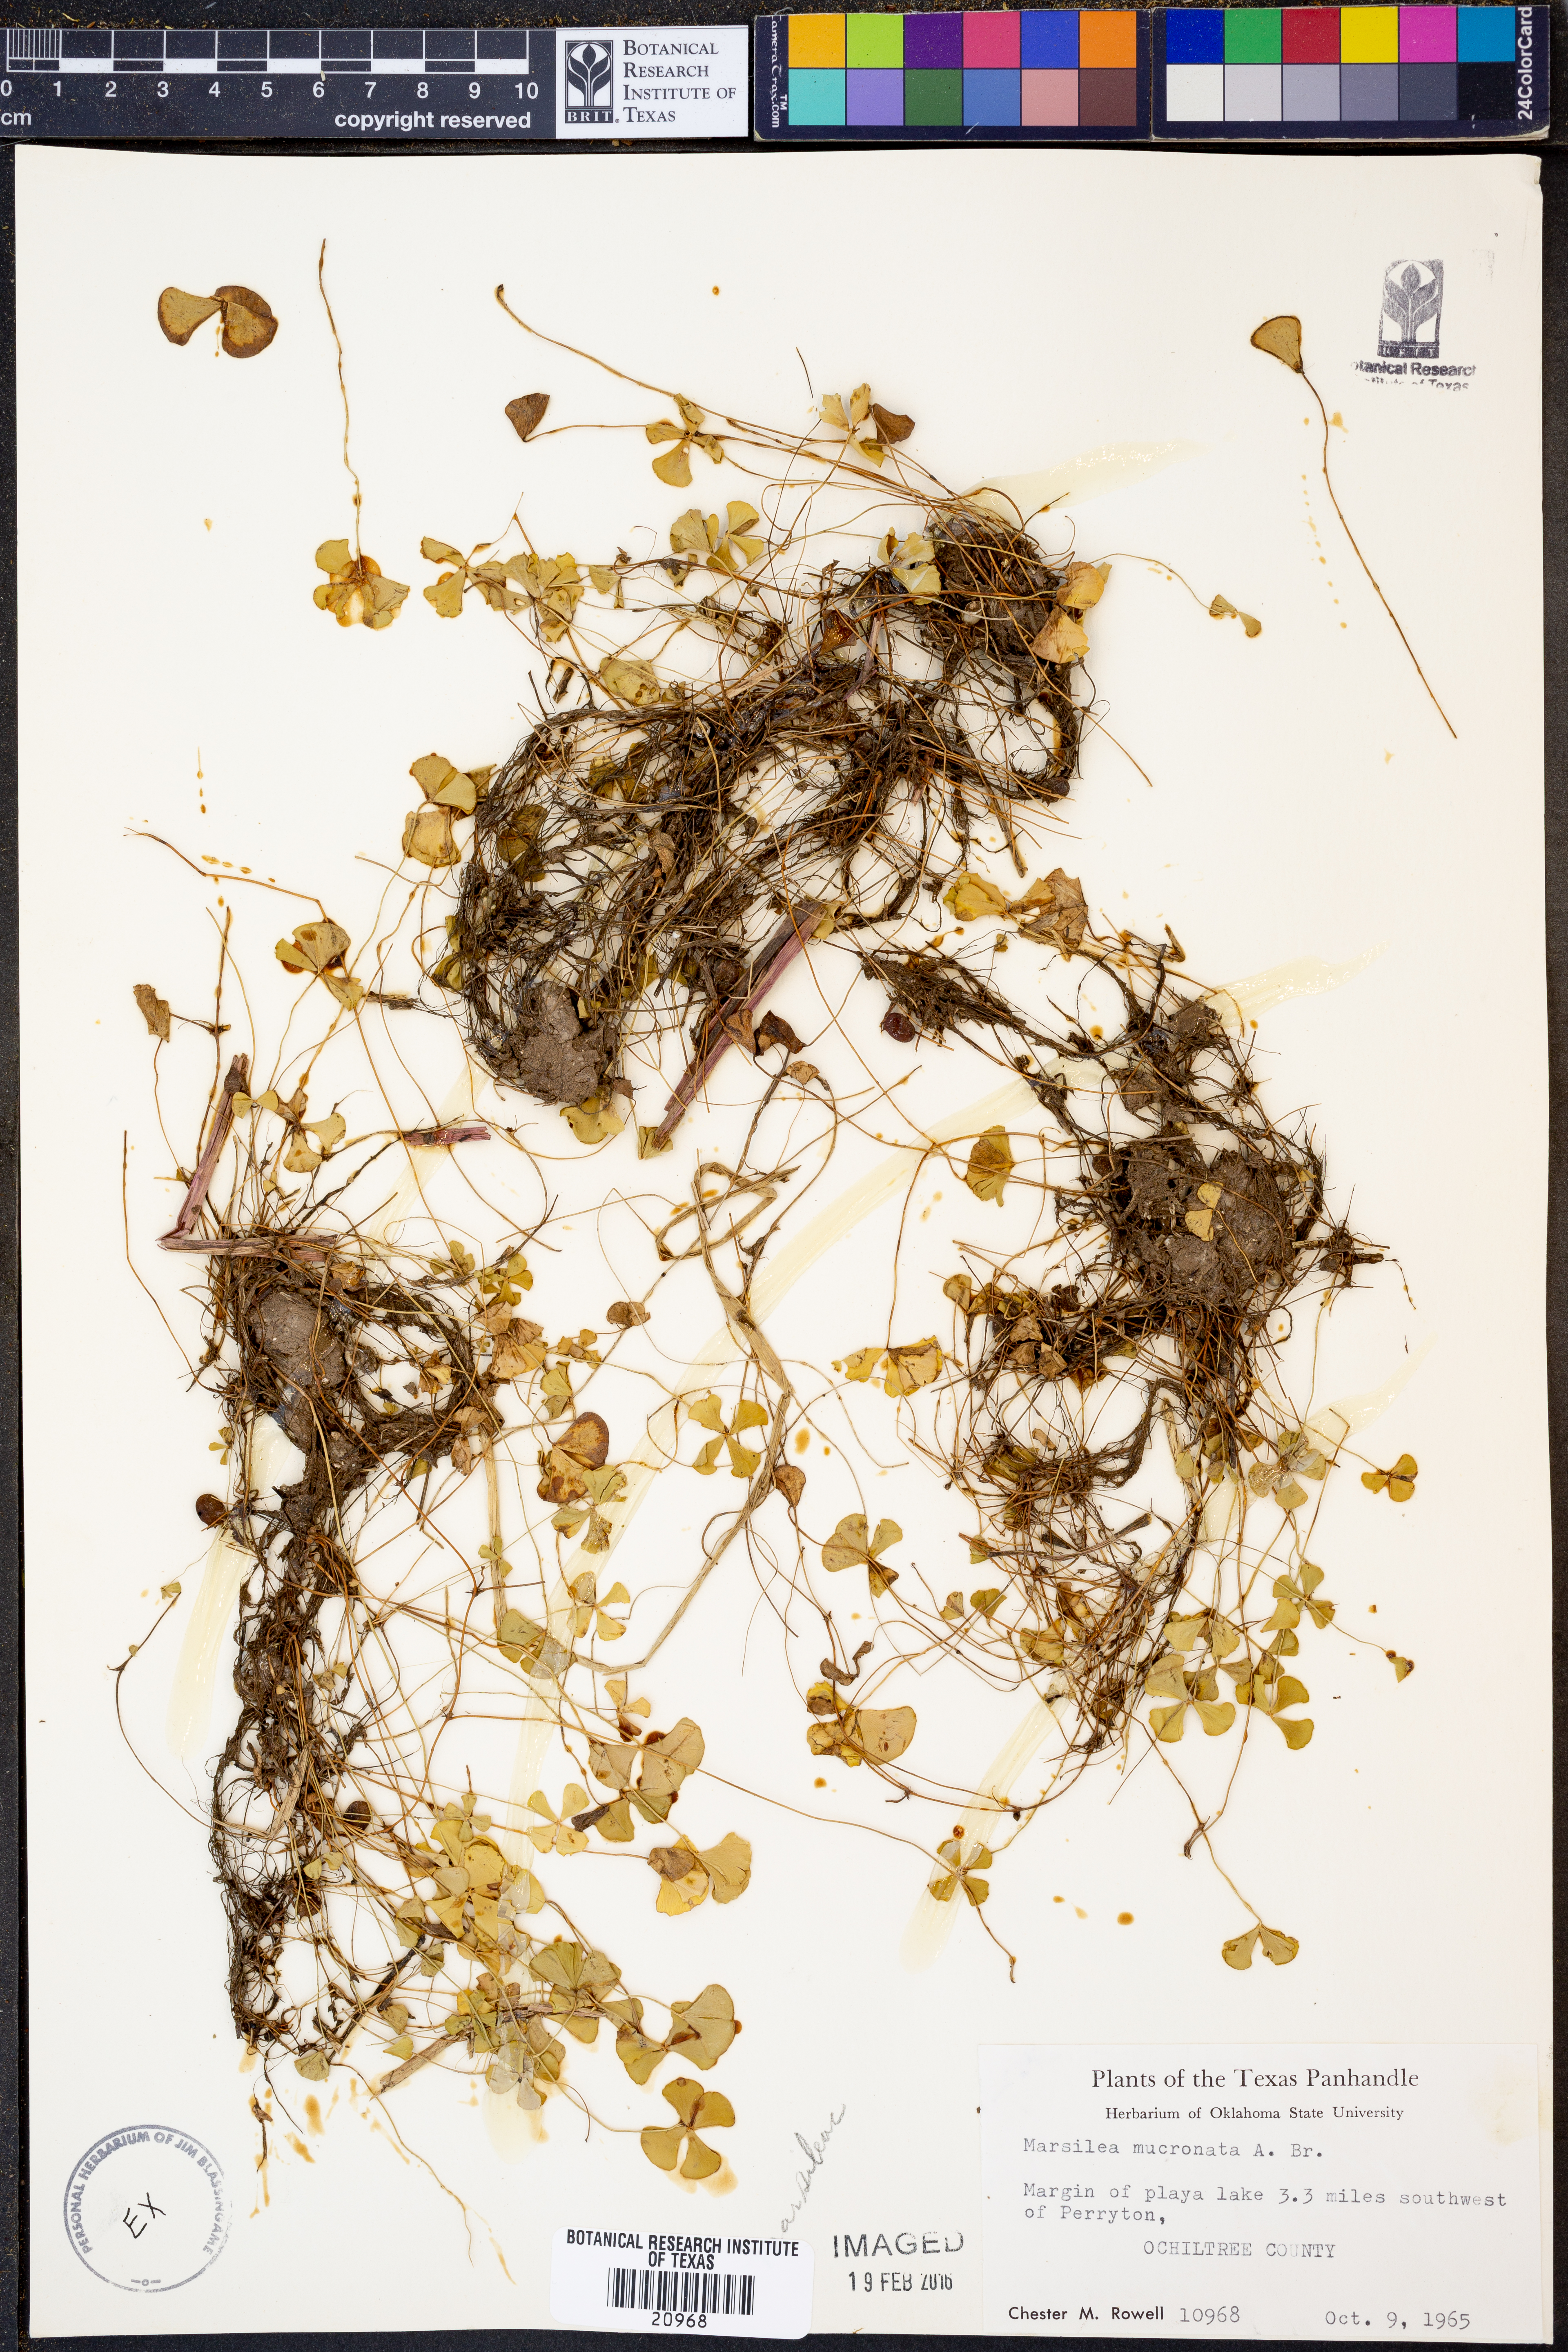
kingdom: Plantae
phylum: Tracheophyta
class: Polypodiopsida
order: Salviniales
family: Marsileaceae
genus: Marsilea
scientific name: Marsilea vestita
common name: Hooked-pepperwort
